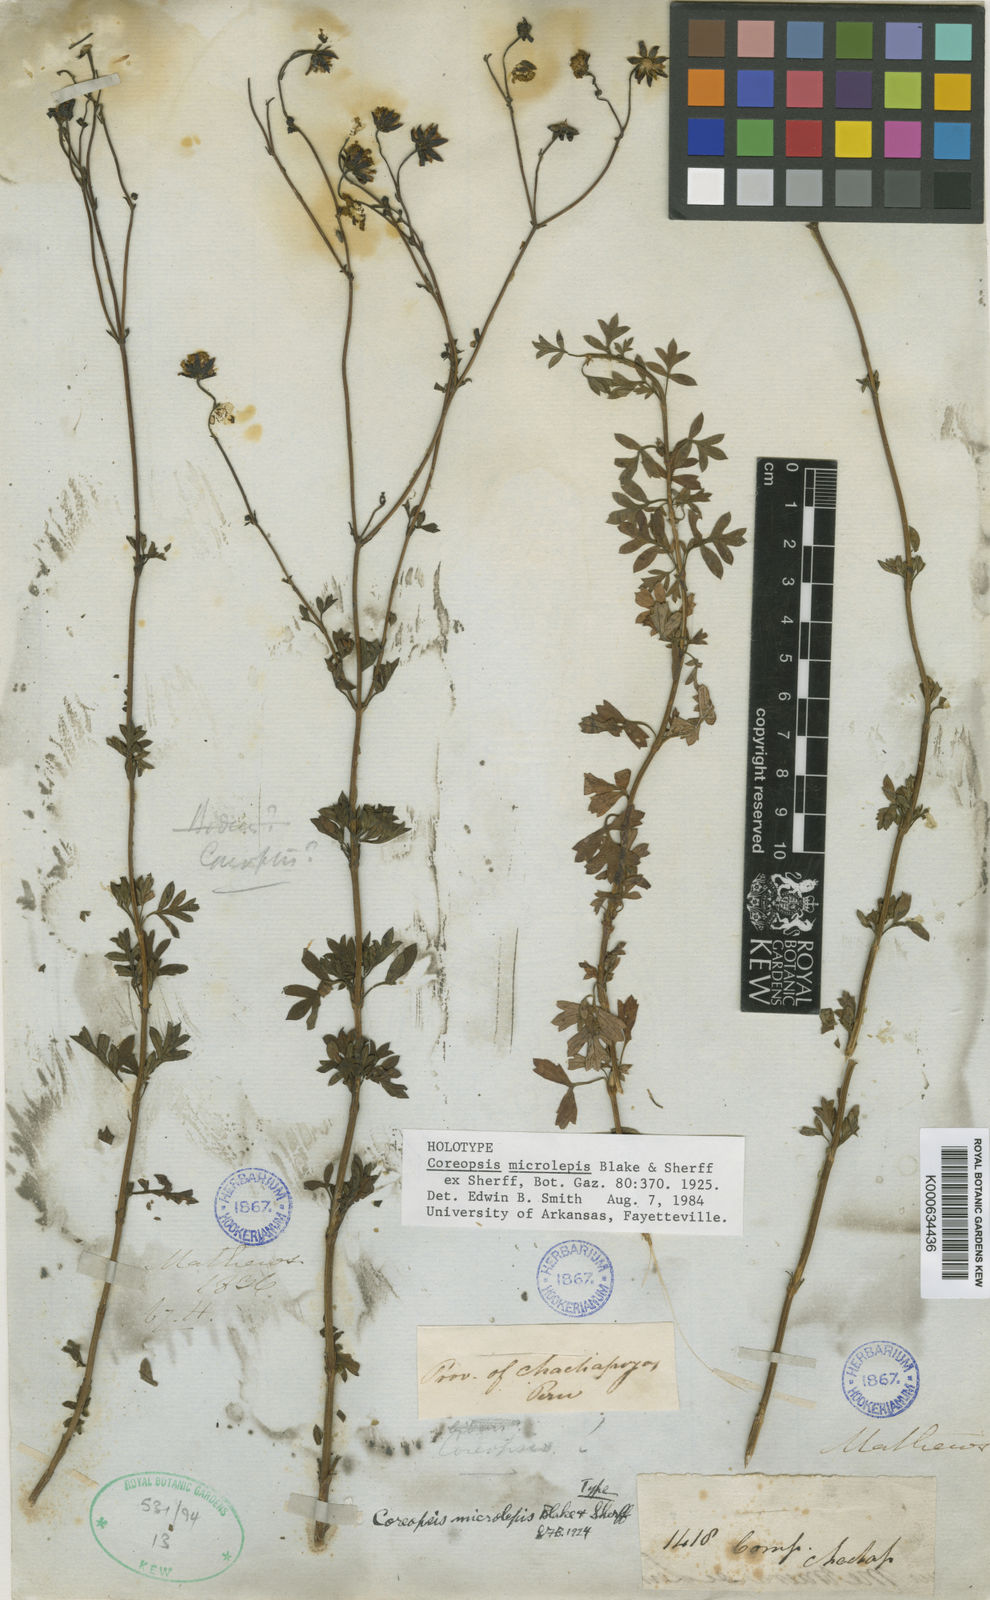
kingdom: Plantae
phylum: Tracheophyta
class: Magnoliopsida
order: Asterales
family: Asteraceae
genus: Coreopsis
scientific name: Coreopsis microlepis
